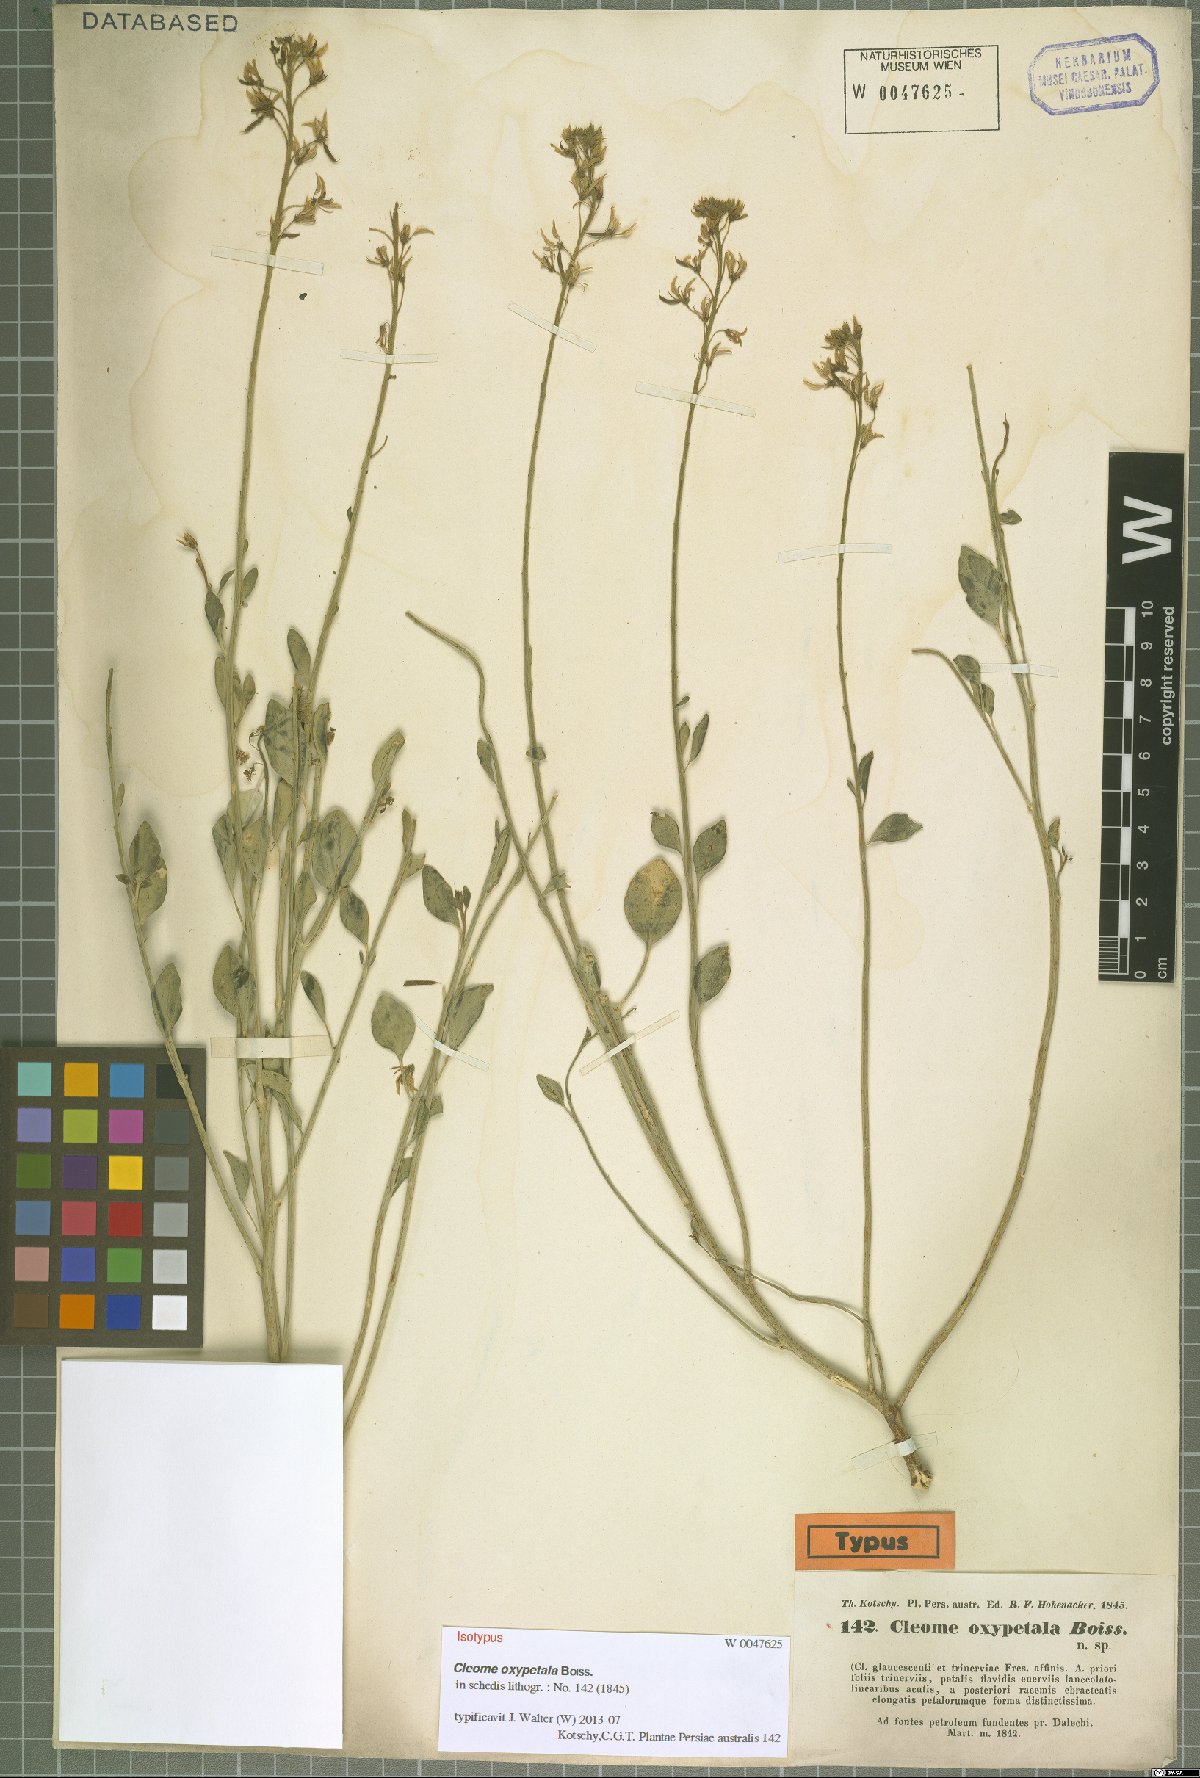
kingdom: Plantae
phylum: Tracheophyta
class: Magnoliopsida
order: Brassicales
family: Cleomaceae
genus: Cleome
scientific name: Cleome oxypetala
